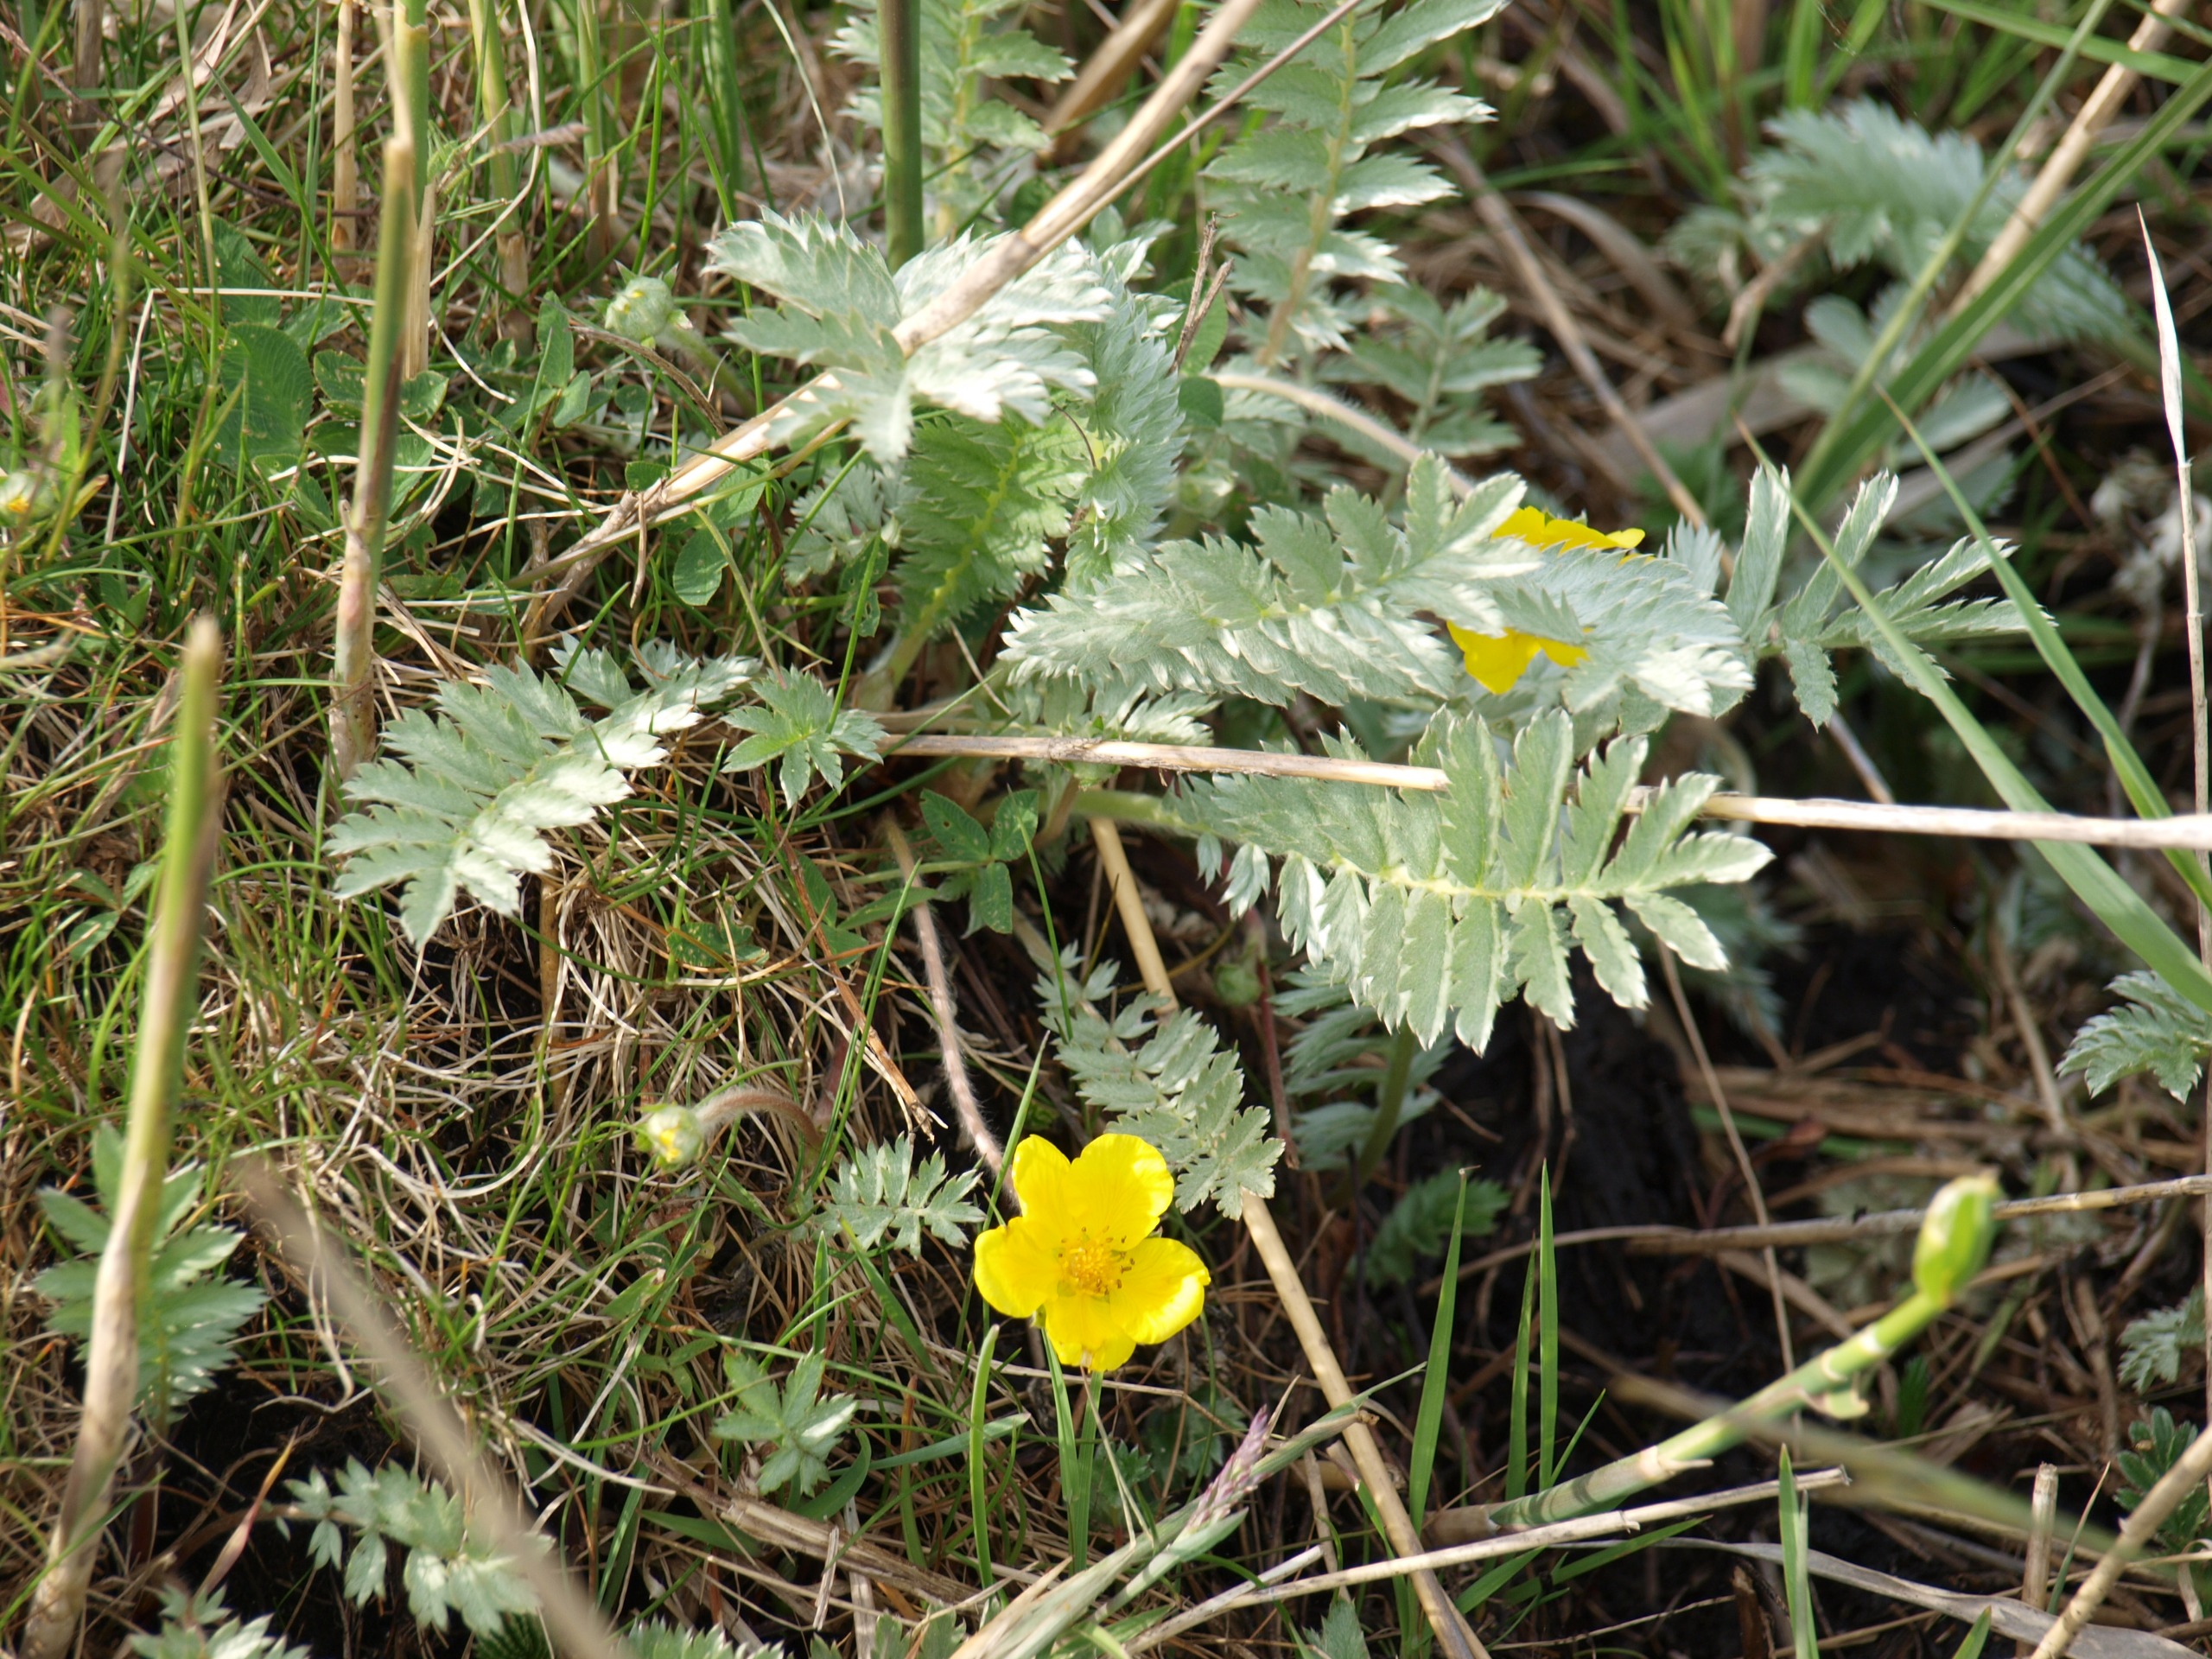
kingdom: Plantae
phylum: Tracheophyta
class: Magnoliopsida
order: Rosales
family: Rosaceae
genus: Argentina
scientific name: Argentina anserina
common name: Gåsepotentil
